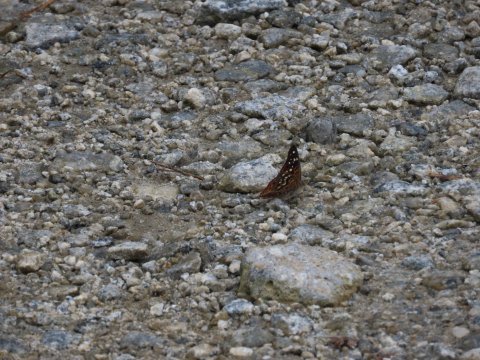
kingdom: Animalia
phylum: Arthropoda
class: Insecta
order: Lepidoptera
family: Nymphalidae
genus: Asterocampa
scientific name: Asterocampa celtis
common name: Hackberry Emperor
